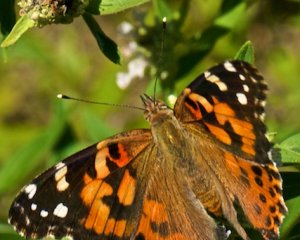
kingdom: Animalia
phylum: Arthropoda
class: Insecta
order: Lepidoptera
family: Nymphalidae
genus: Vanessa
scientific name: Vanessa cardui
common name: Painted Lady
